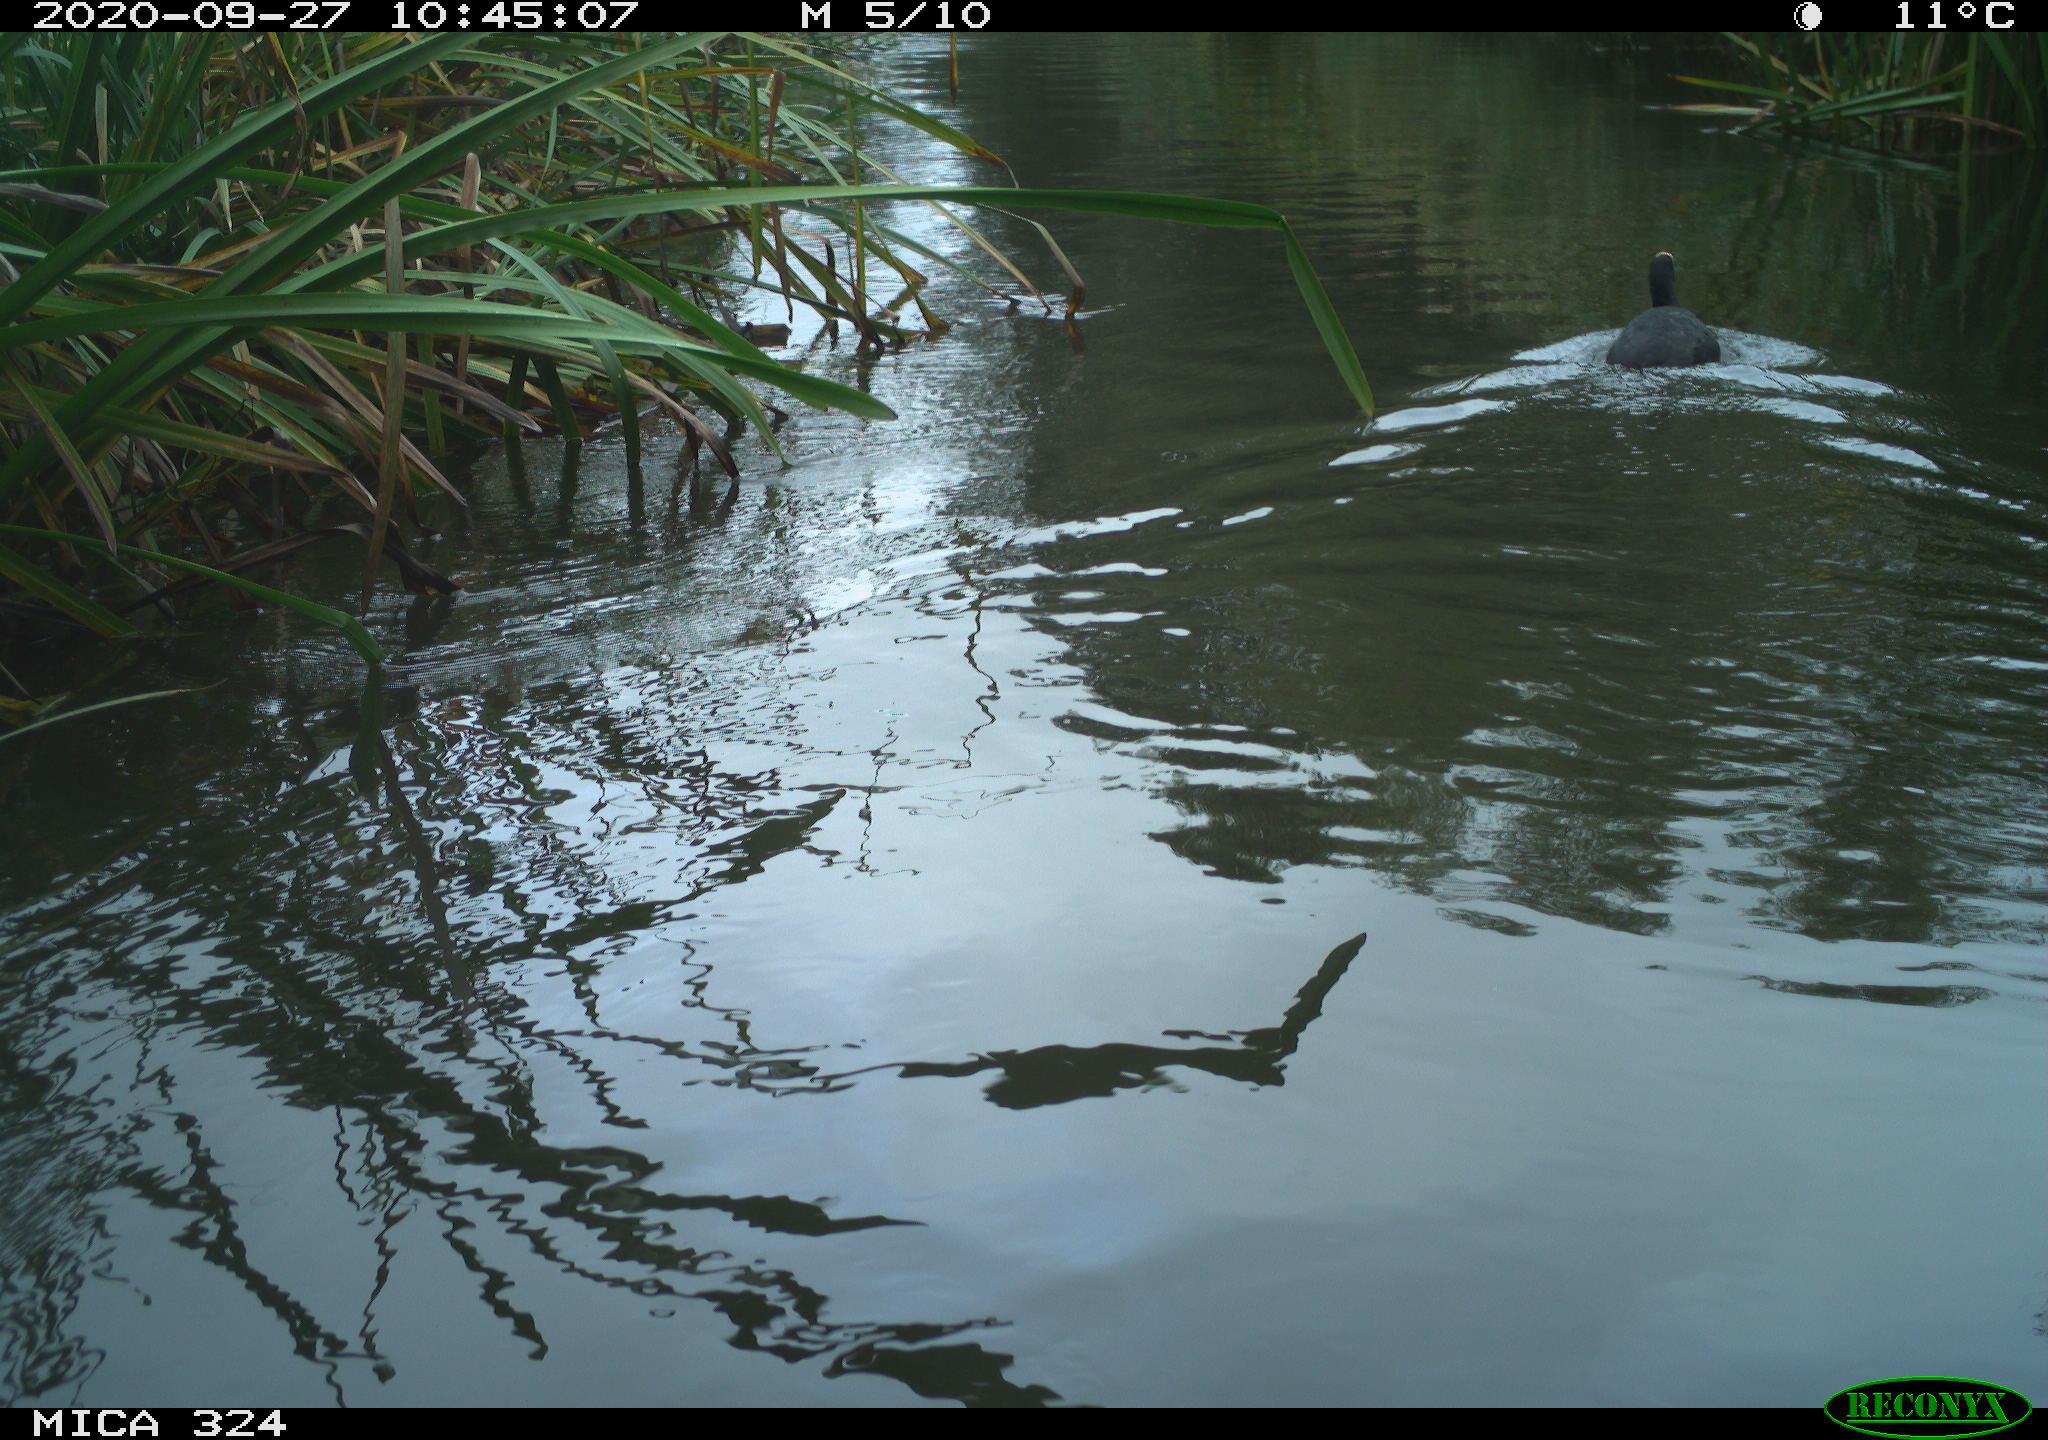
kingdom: Animalia
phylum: Chordata
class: Aves
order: Gruiformes
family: Rallidae
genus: Fulica
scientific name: Fulica atra
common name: Eurasian coot
